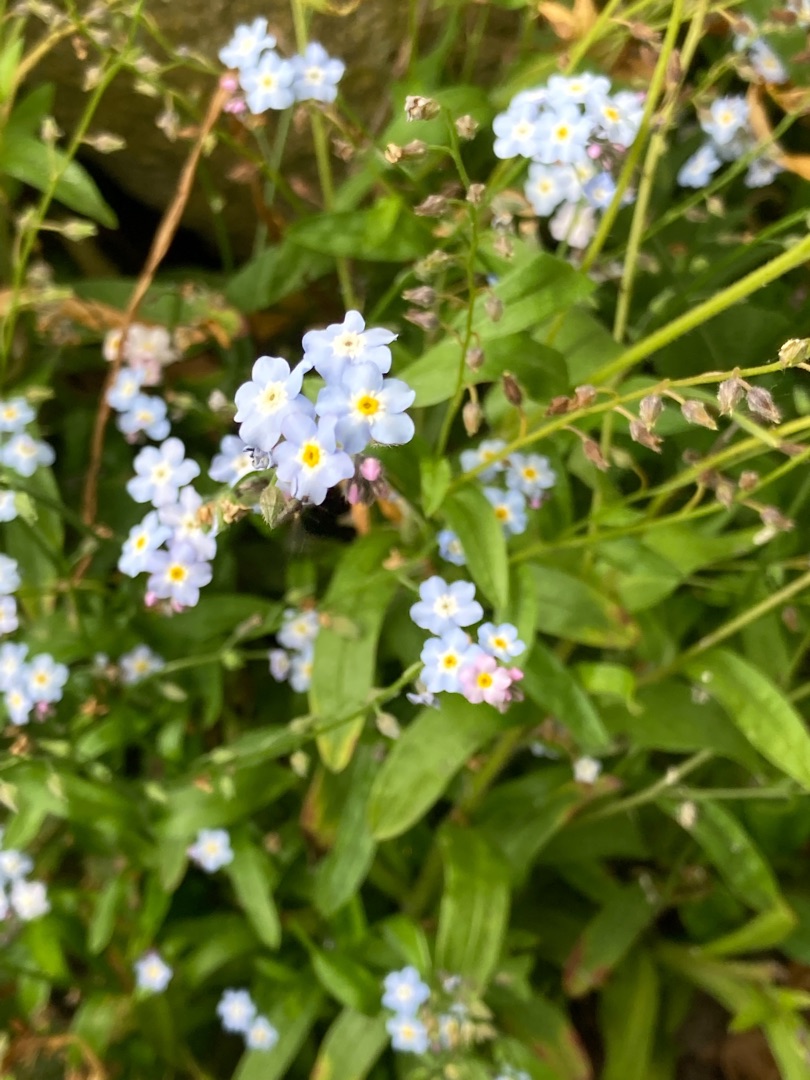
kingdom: Plantae
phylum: Tracheophyta
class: Magnoliopsida
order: Boraginales
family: Boraginaceae
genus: Myosotis
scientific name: Myosotis sylvatica
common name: Skov-forglemmigej
